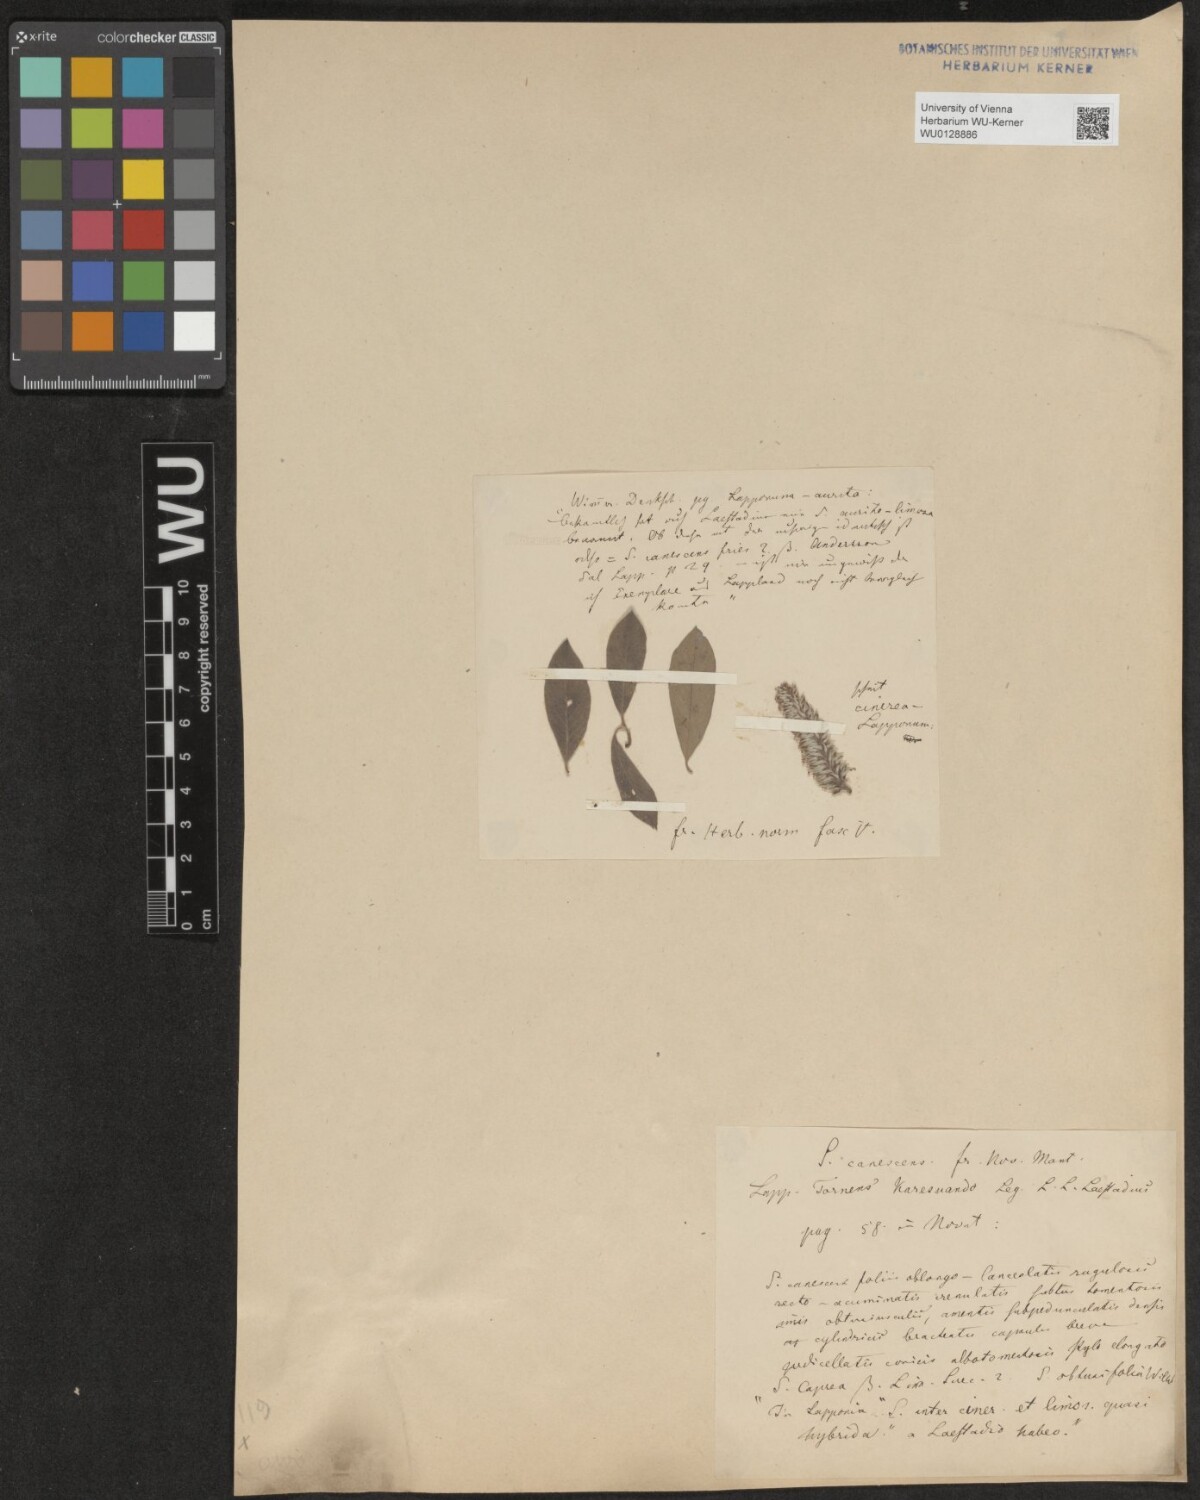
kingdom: Plantae
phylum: Tracheophyta
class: Magnoliopsida
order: Malpighiales
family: Salicaceae
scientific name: Salicaceae
